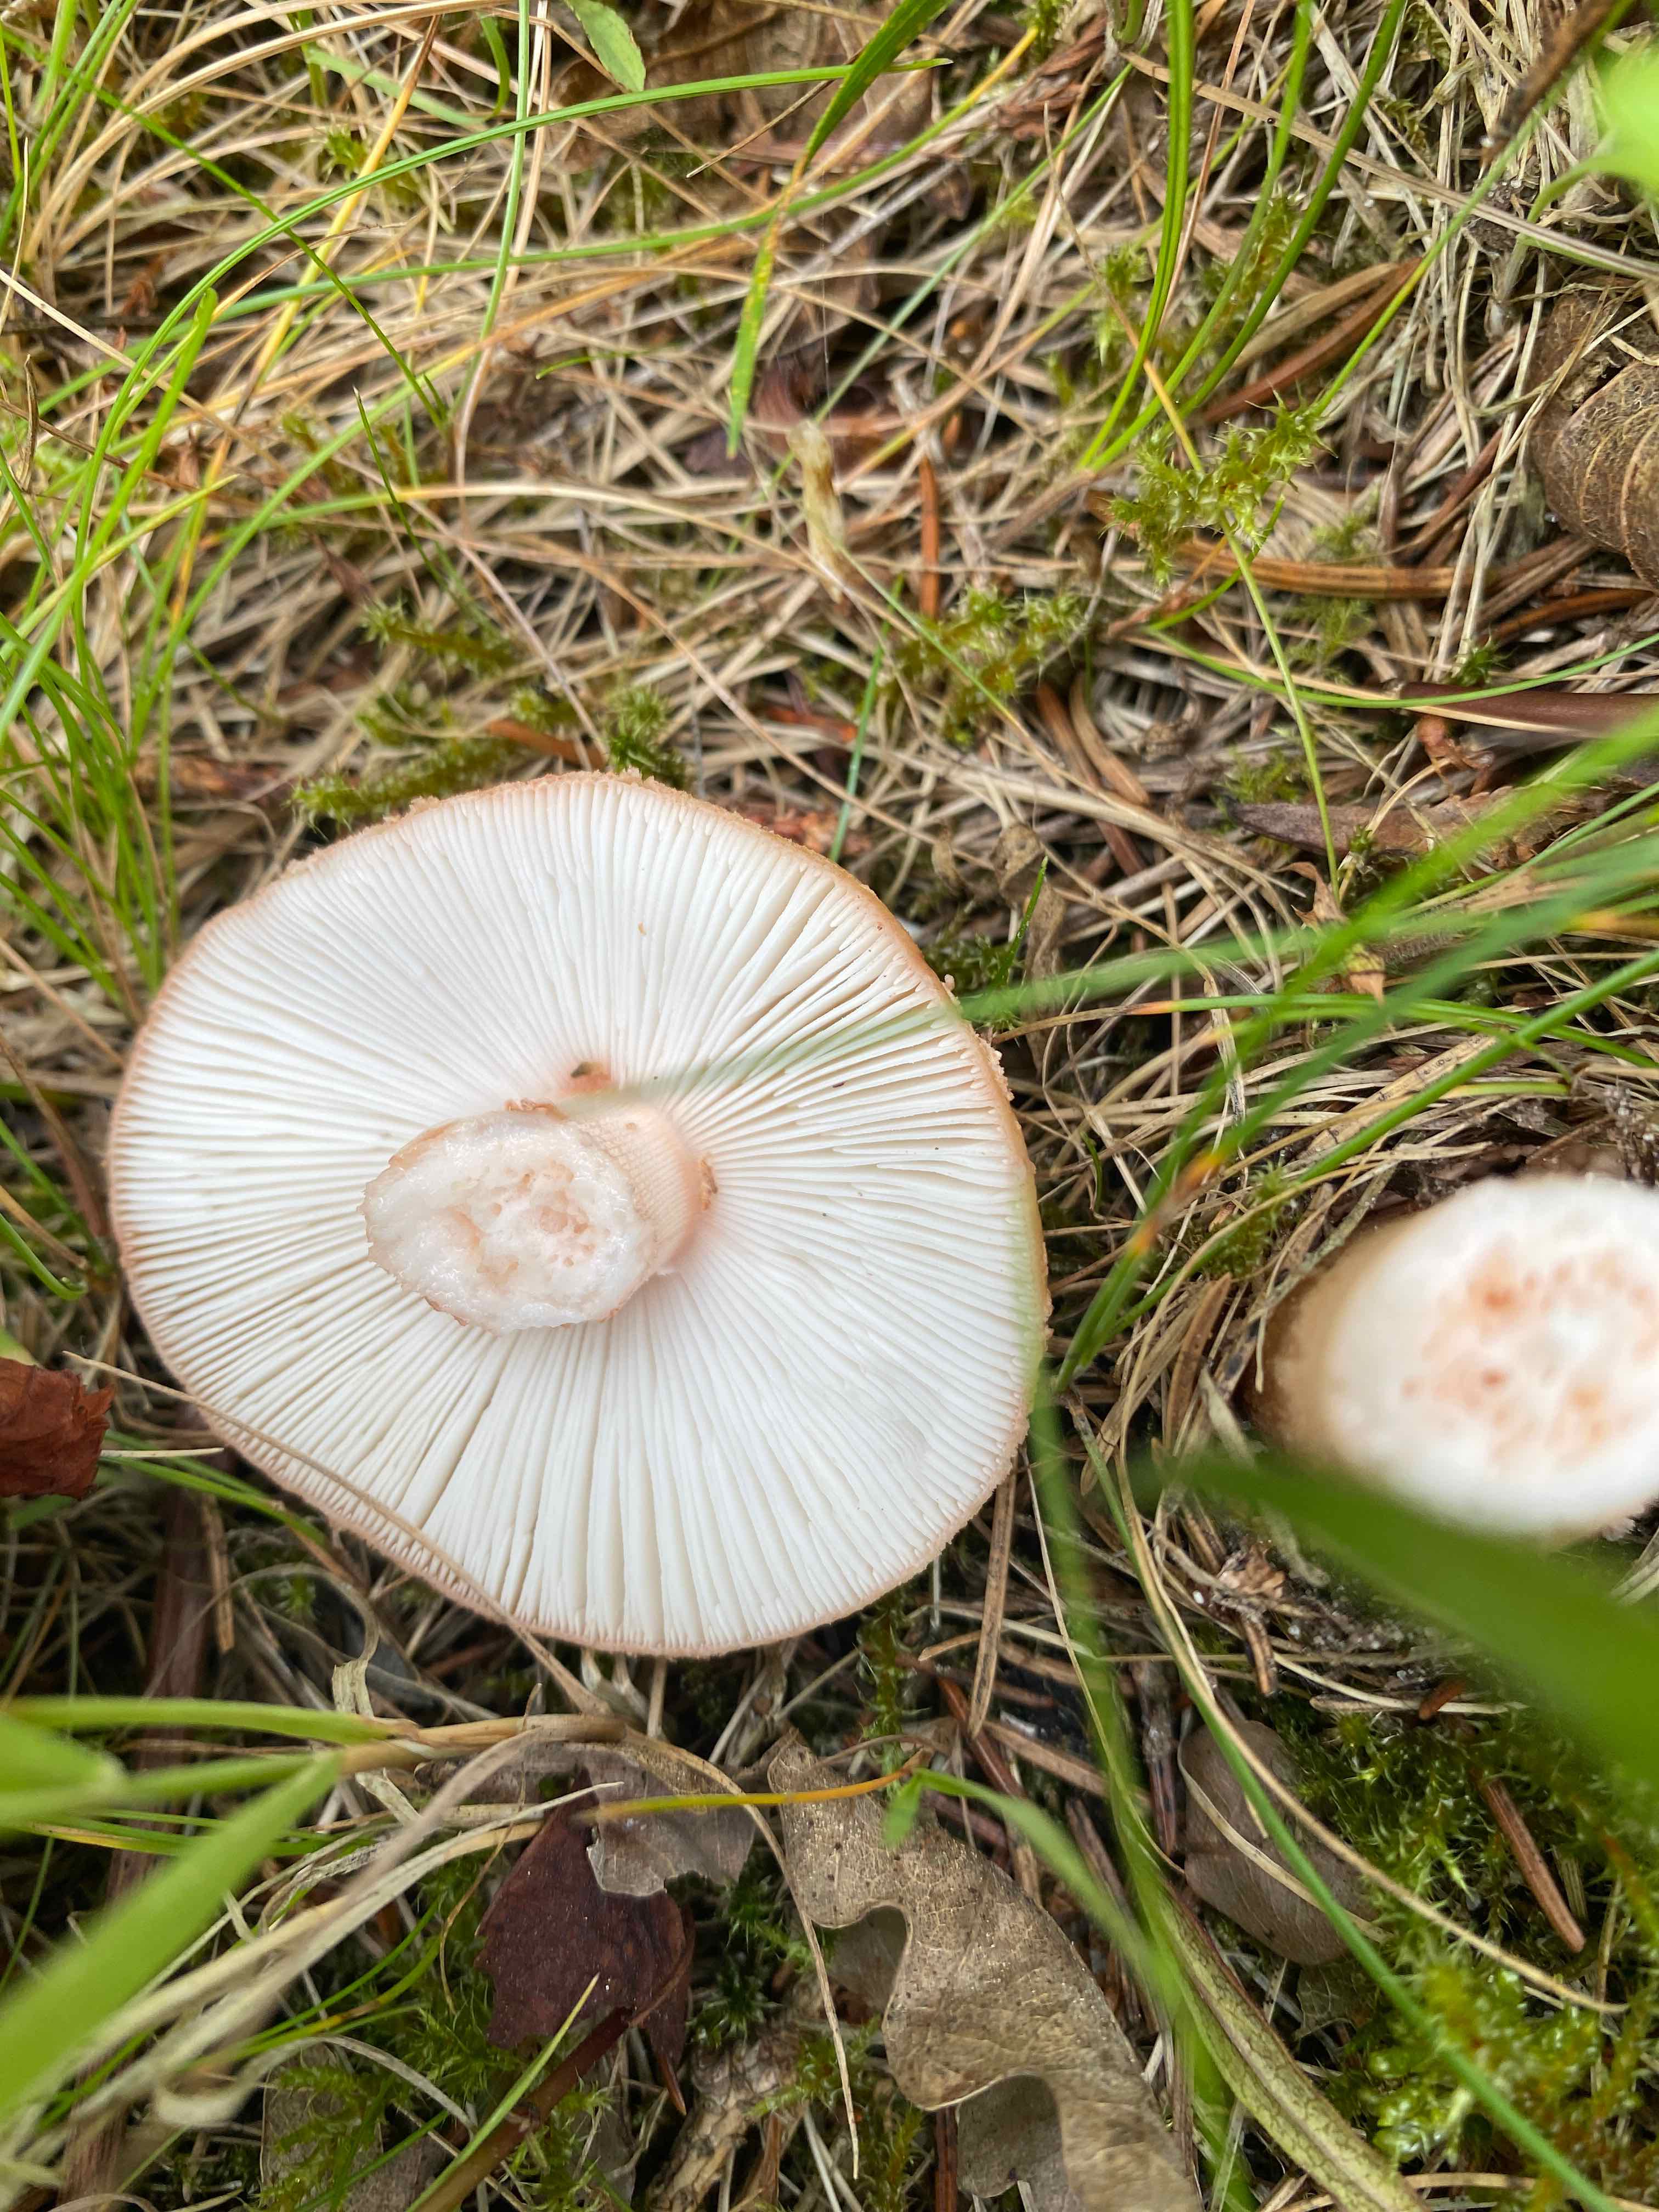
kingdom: Fungi
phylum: Basidiomycota
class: Agaricomycetes
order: Agaricales
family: Amanitaceae
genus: Amanita
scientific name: Amanita rubescens
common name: rødmende fluesvamp
